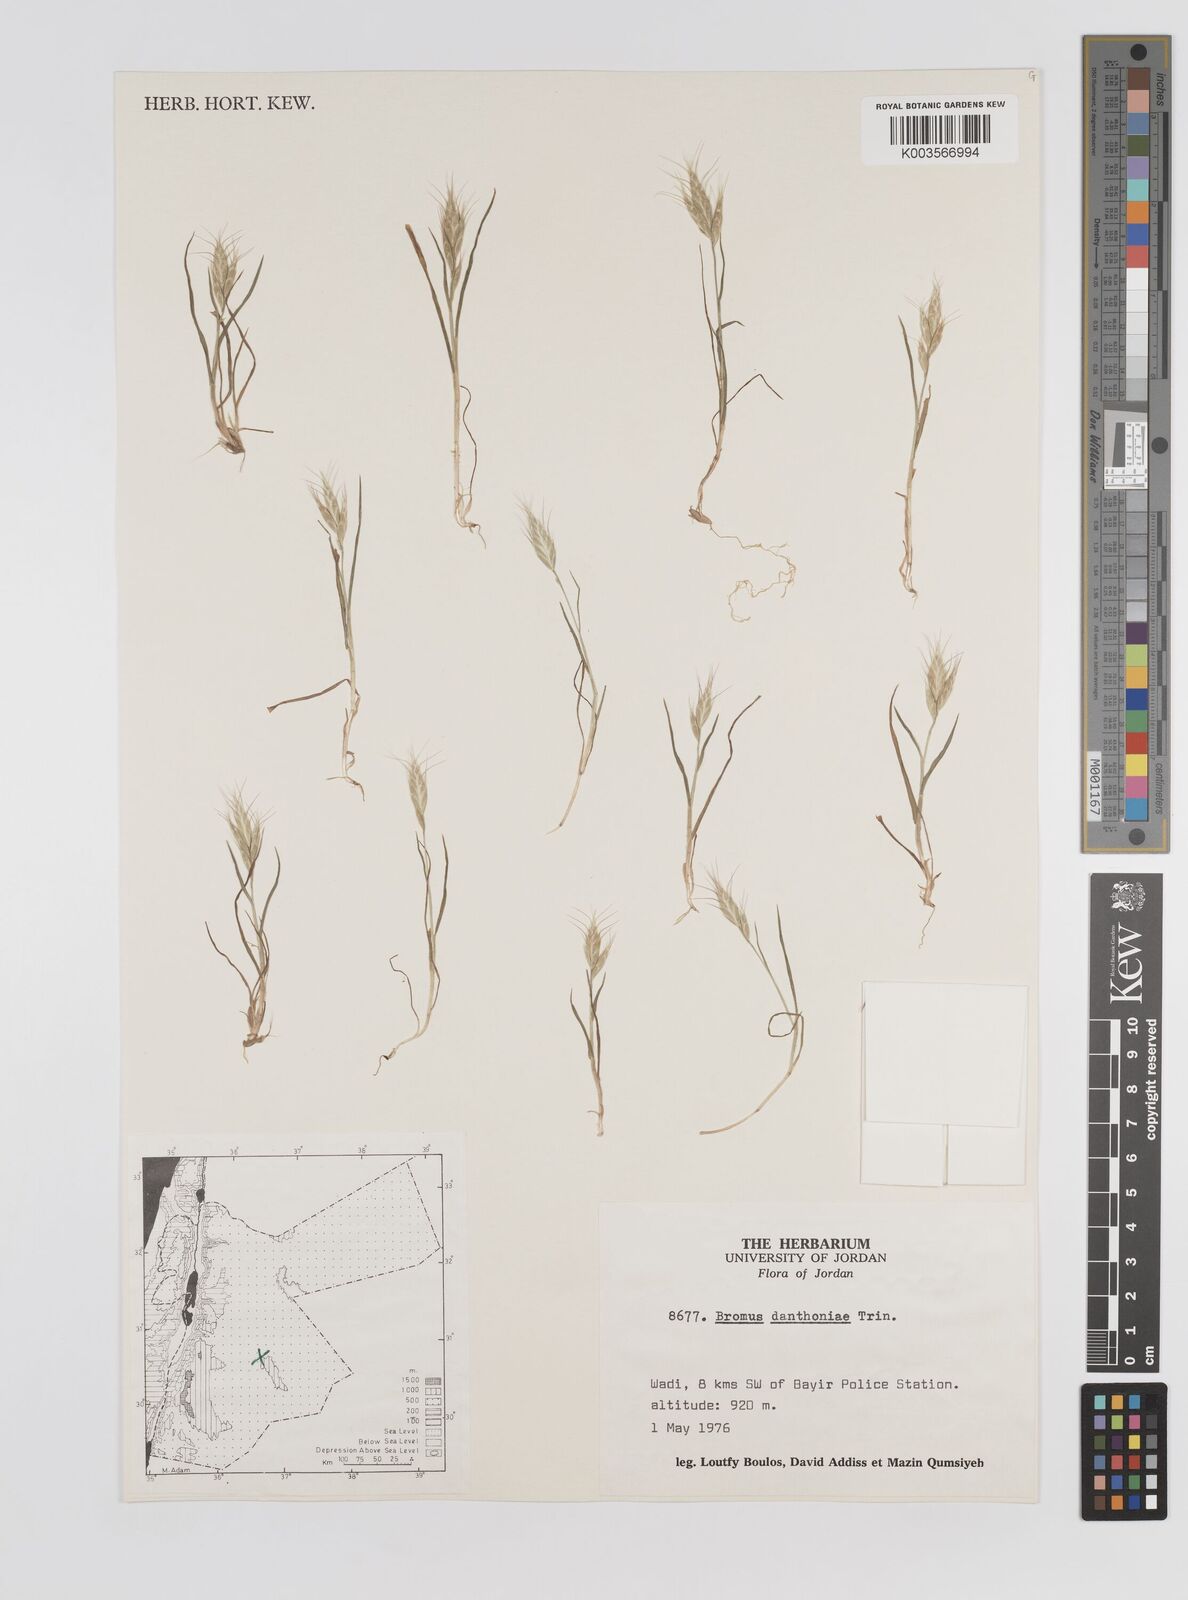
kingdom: Plantae
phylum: Tracheophyta
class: Liliopsida
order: Poales
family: Poaceae
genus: Bromus
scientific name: Bromus danthoniae
